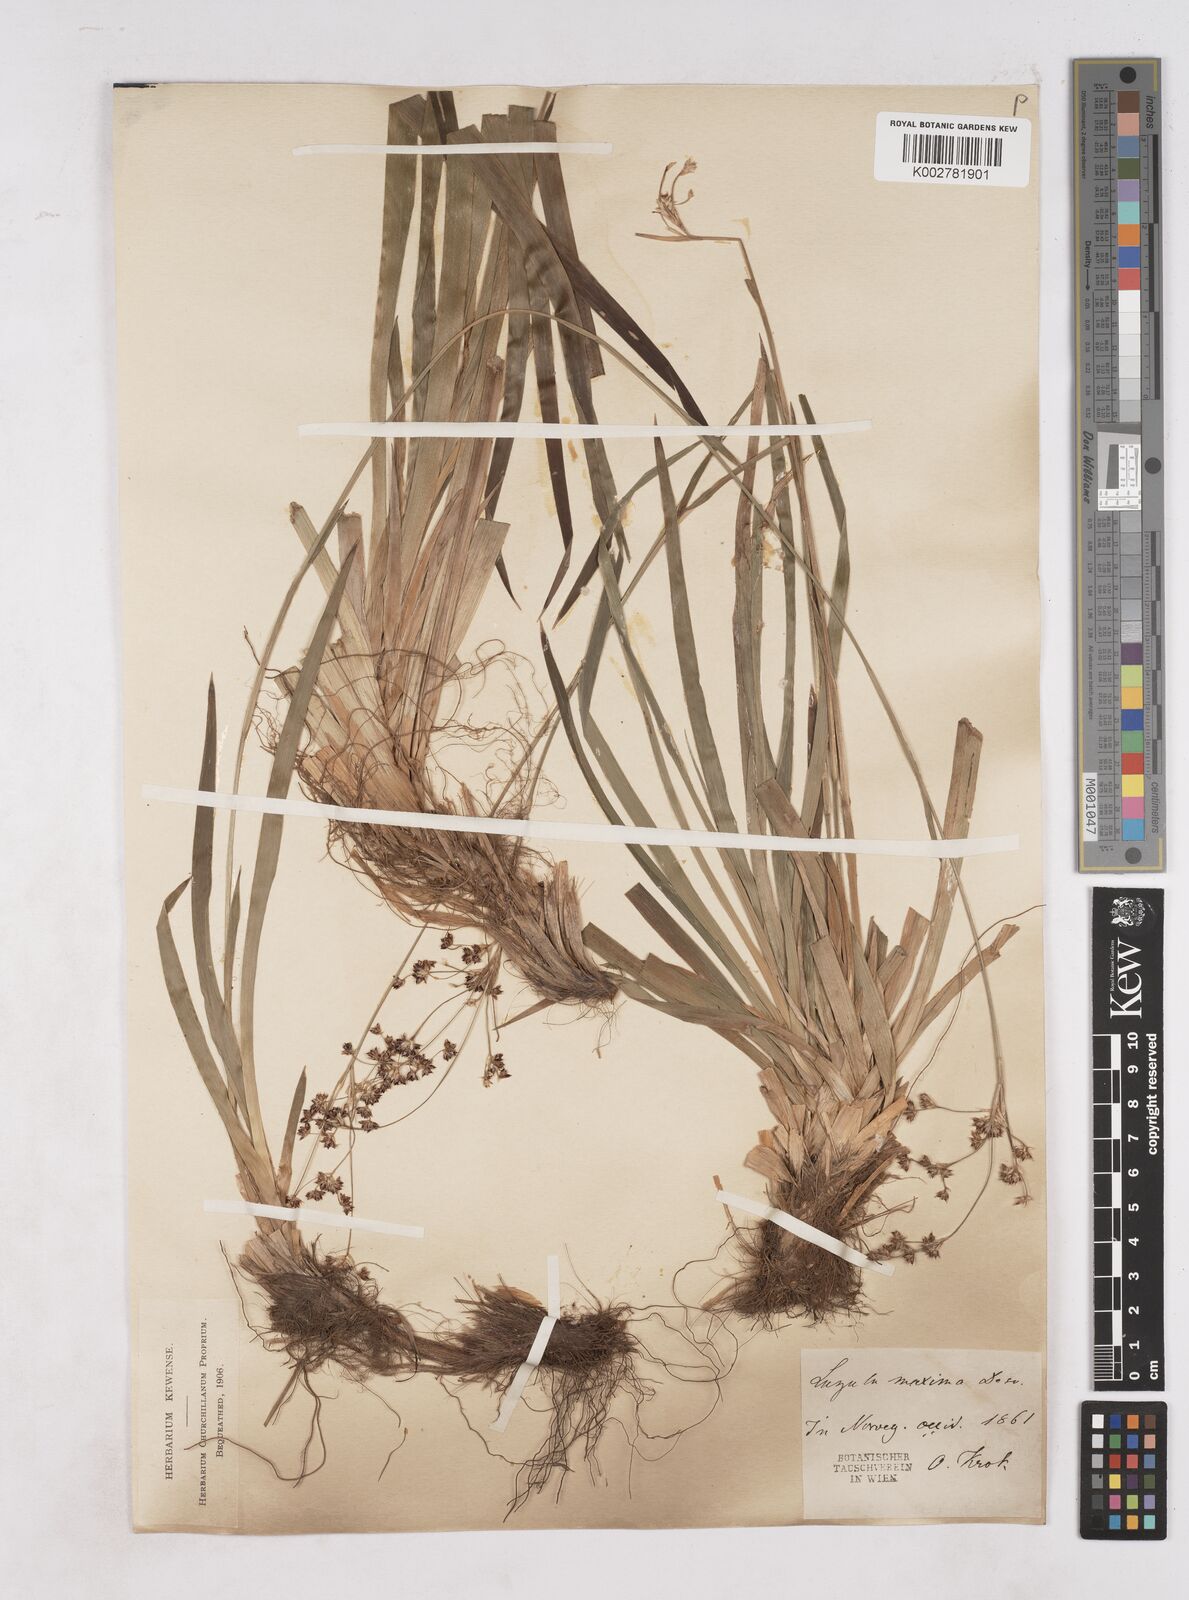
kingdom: Plantae
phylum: Tracheophyta
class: Liliopsida
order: Poales
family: Juncaceae
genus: Luzula
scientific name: Luzula sylvatica
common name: Great wood-rush
